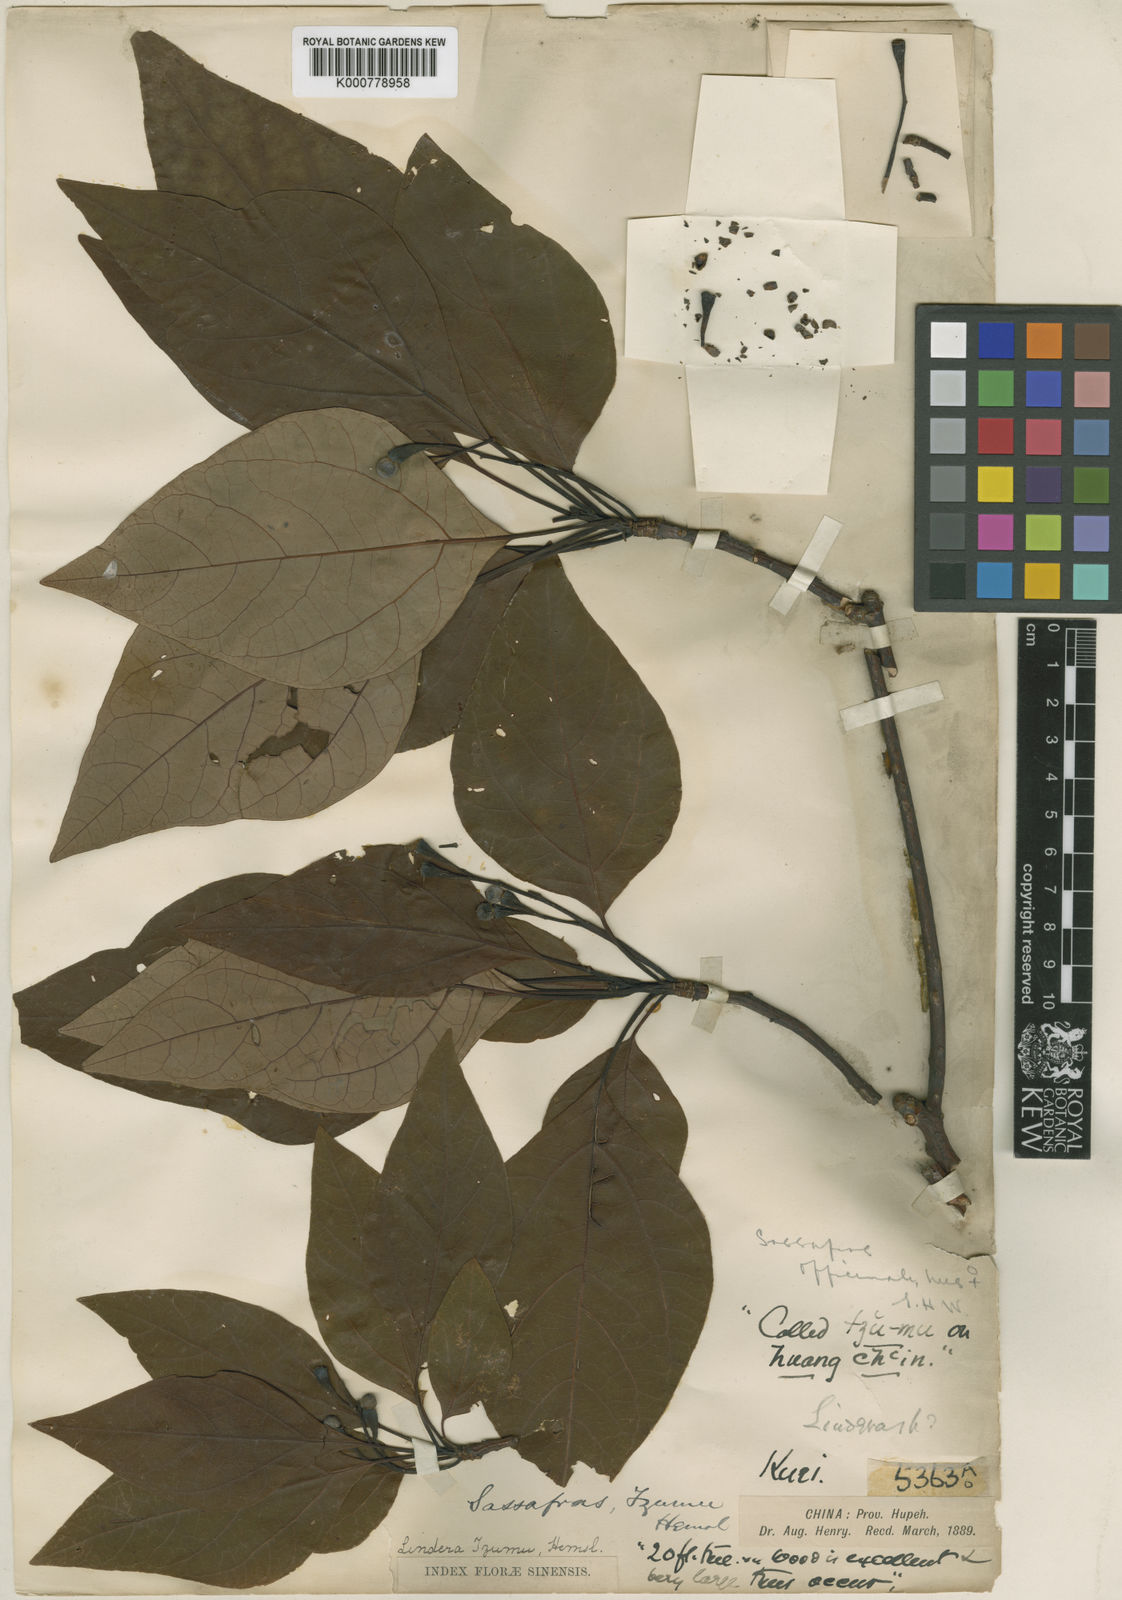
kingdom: Plantae
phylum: Tracheophyta
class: Magnoliopsida
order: Laurales
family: Lauraceae
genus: Sassafras
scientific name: Sassafras tzumu
